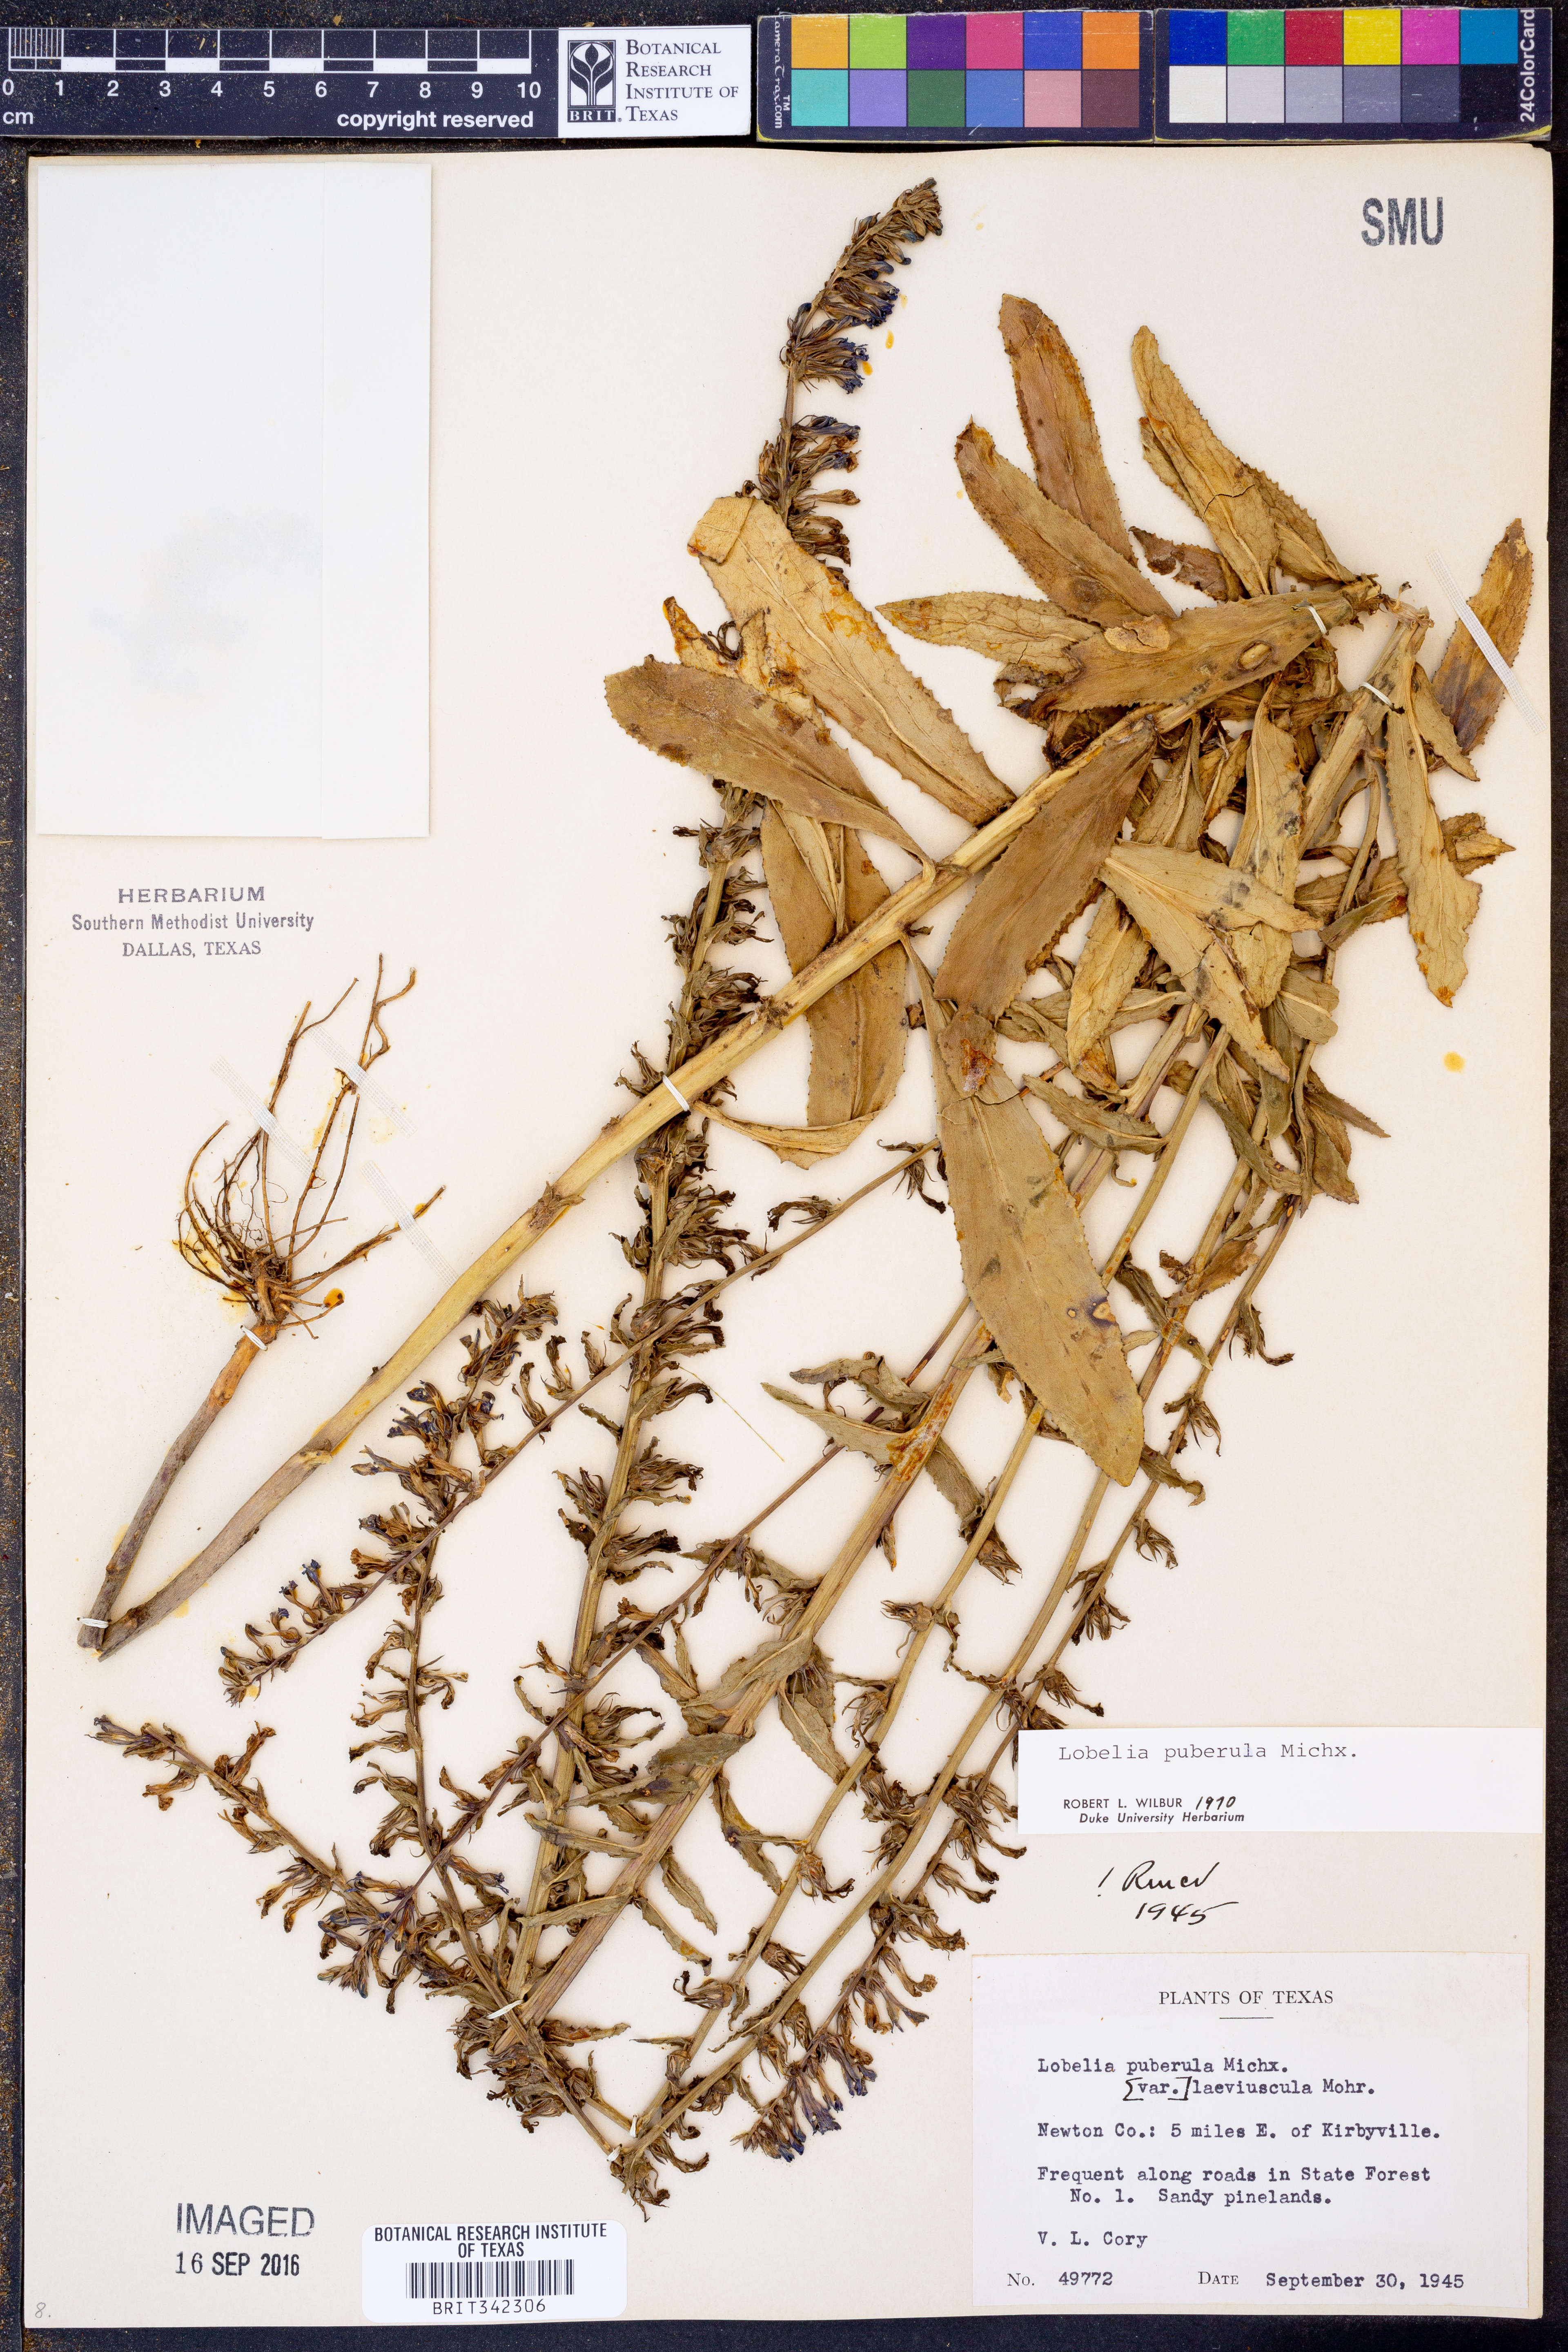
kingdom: Plantae
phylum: Tracheophyta
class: Magnoliopsida
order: Asterales
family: Campanulaceae
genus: Lobelia
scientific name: Lobelia puberula
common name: Purple dewdrop
